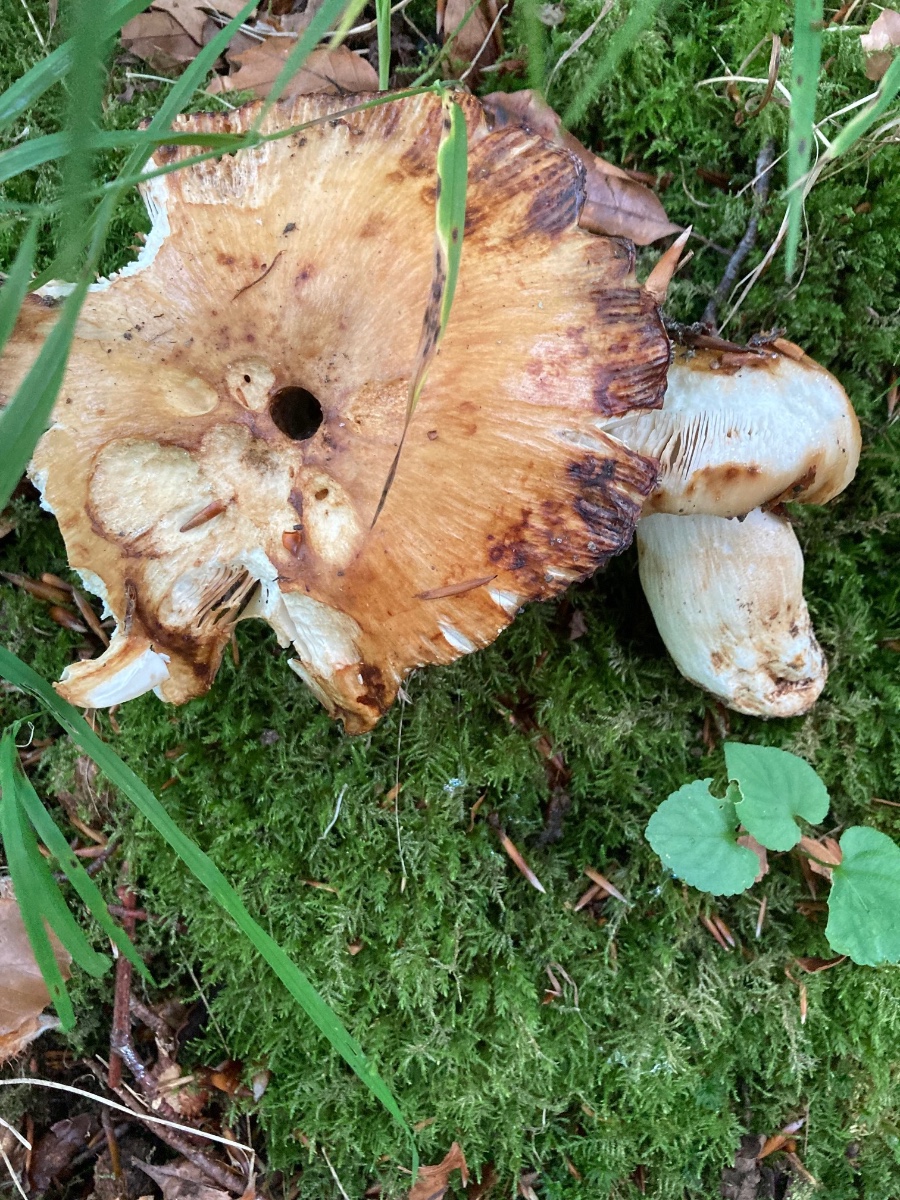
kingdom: Fungi
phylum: Basidiomycota
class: Agaricomycetes
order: Russulales
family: Russulaceae
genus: Russula
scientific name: Russula foetens
